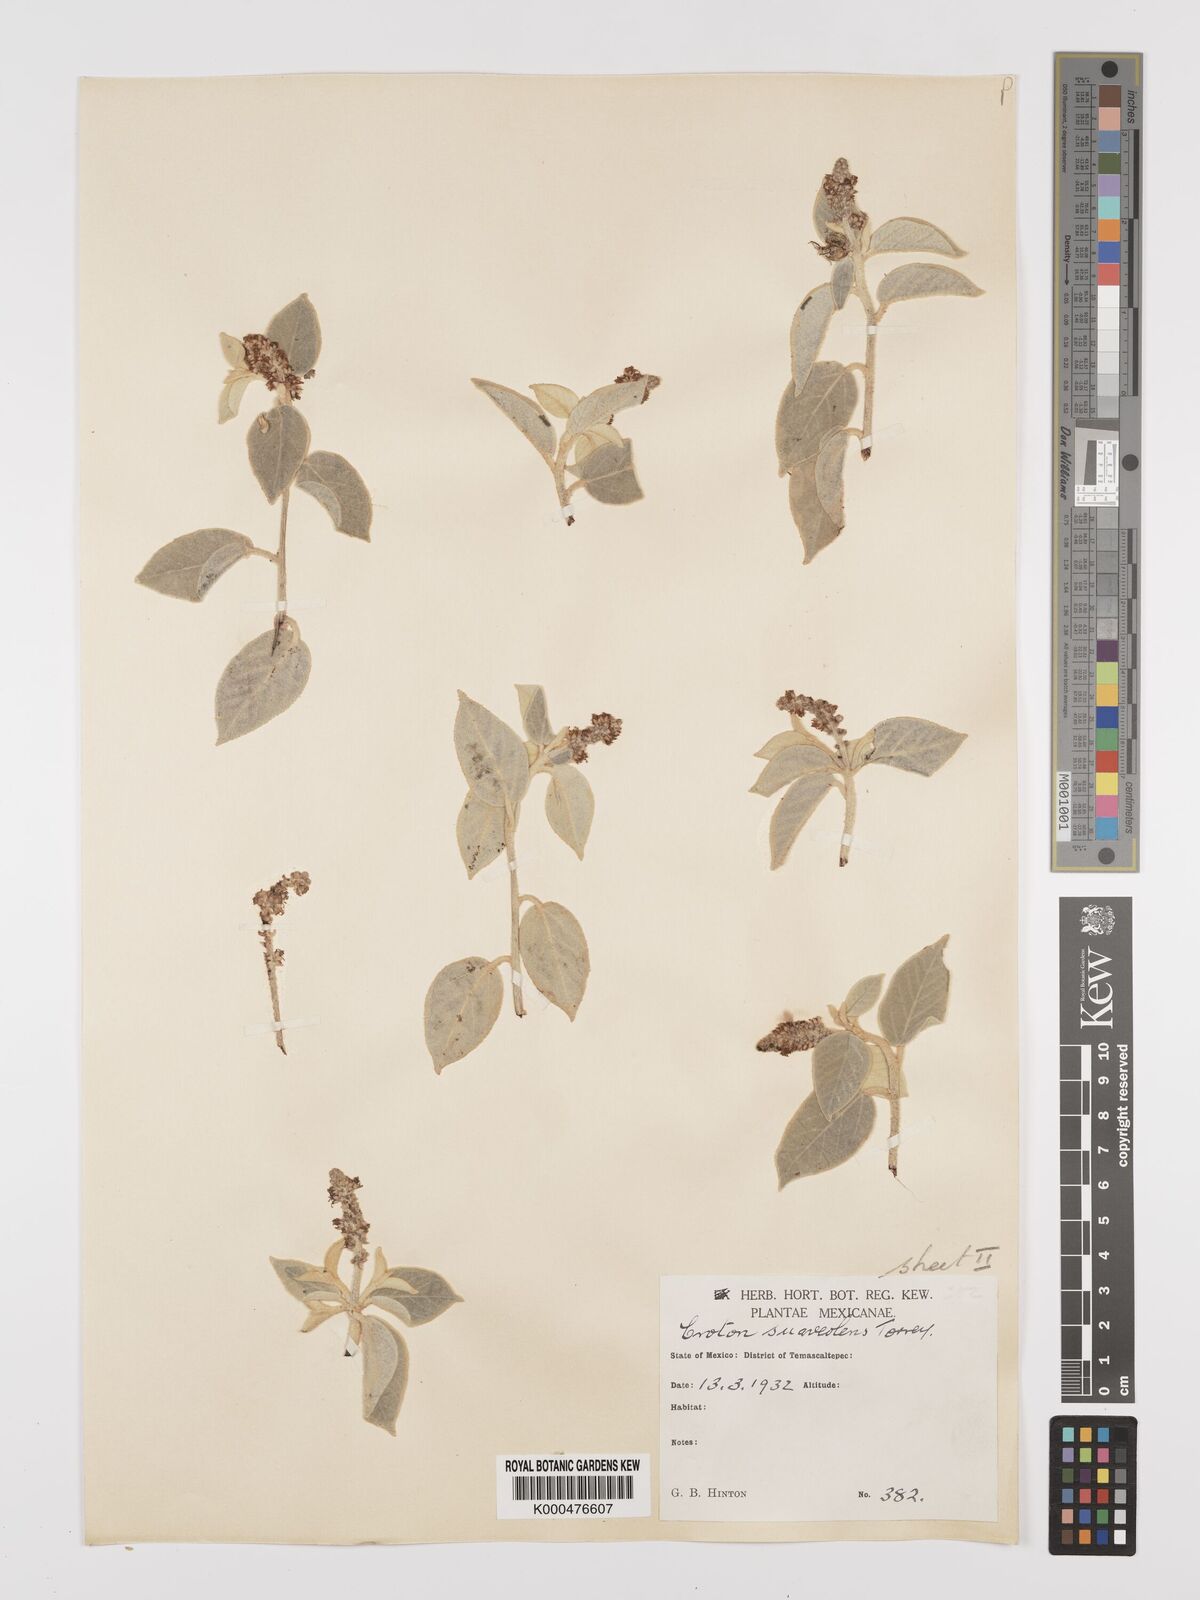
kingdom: Plantae
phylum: Tracheophyta
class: Magnoliopsida
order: Malpighiales
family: Euphorbiaceae
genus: Croton
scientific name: Croton suaveolens
